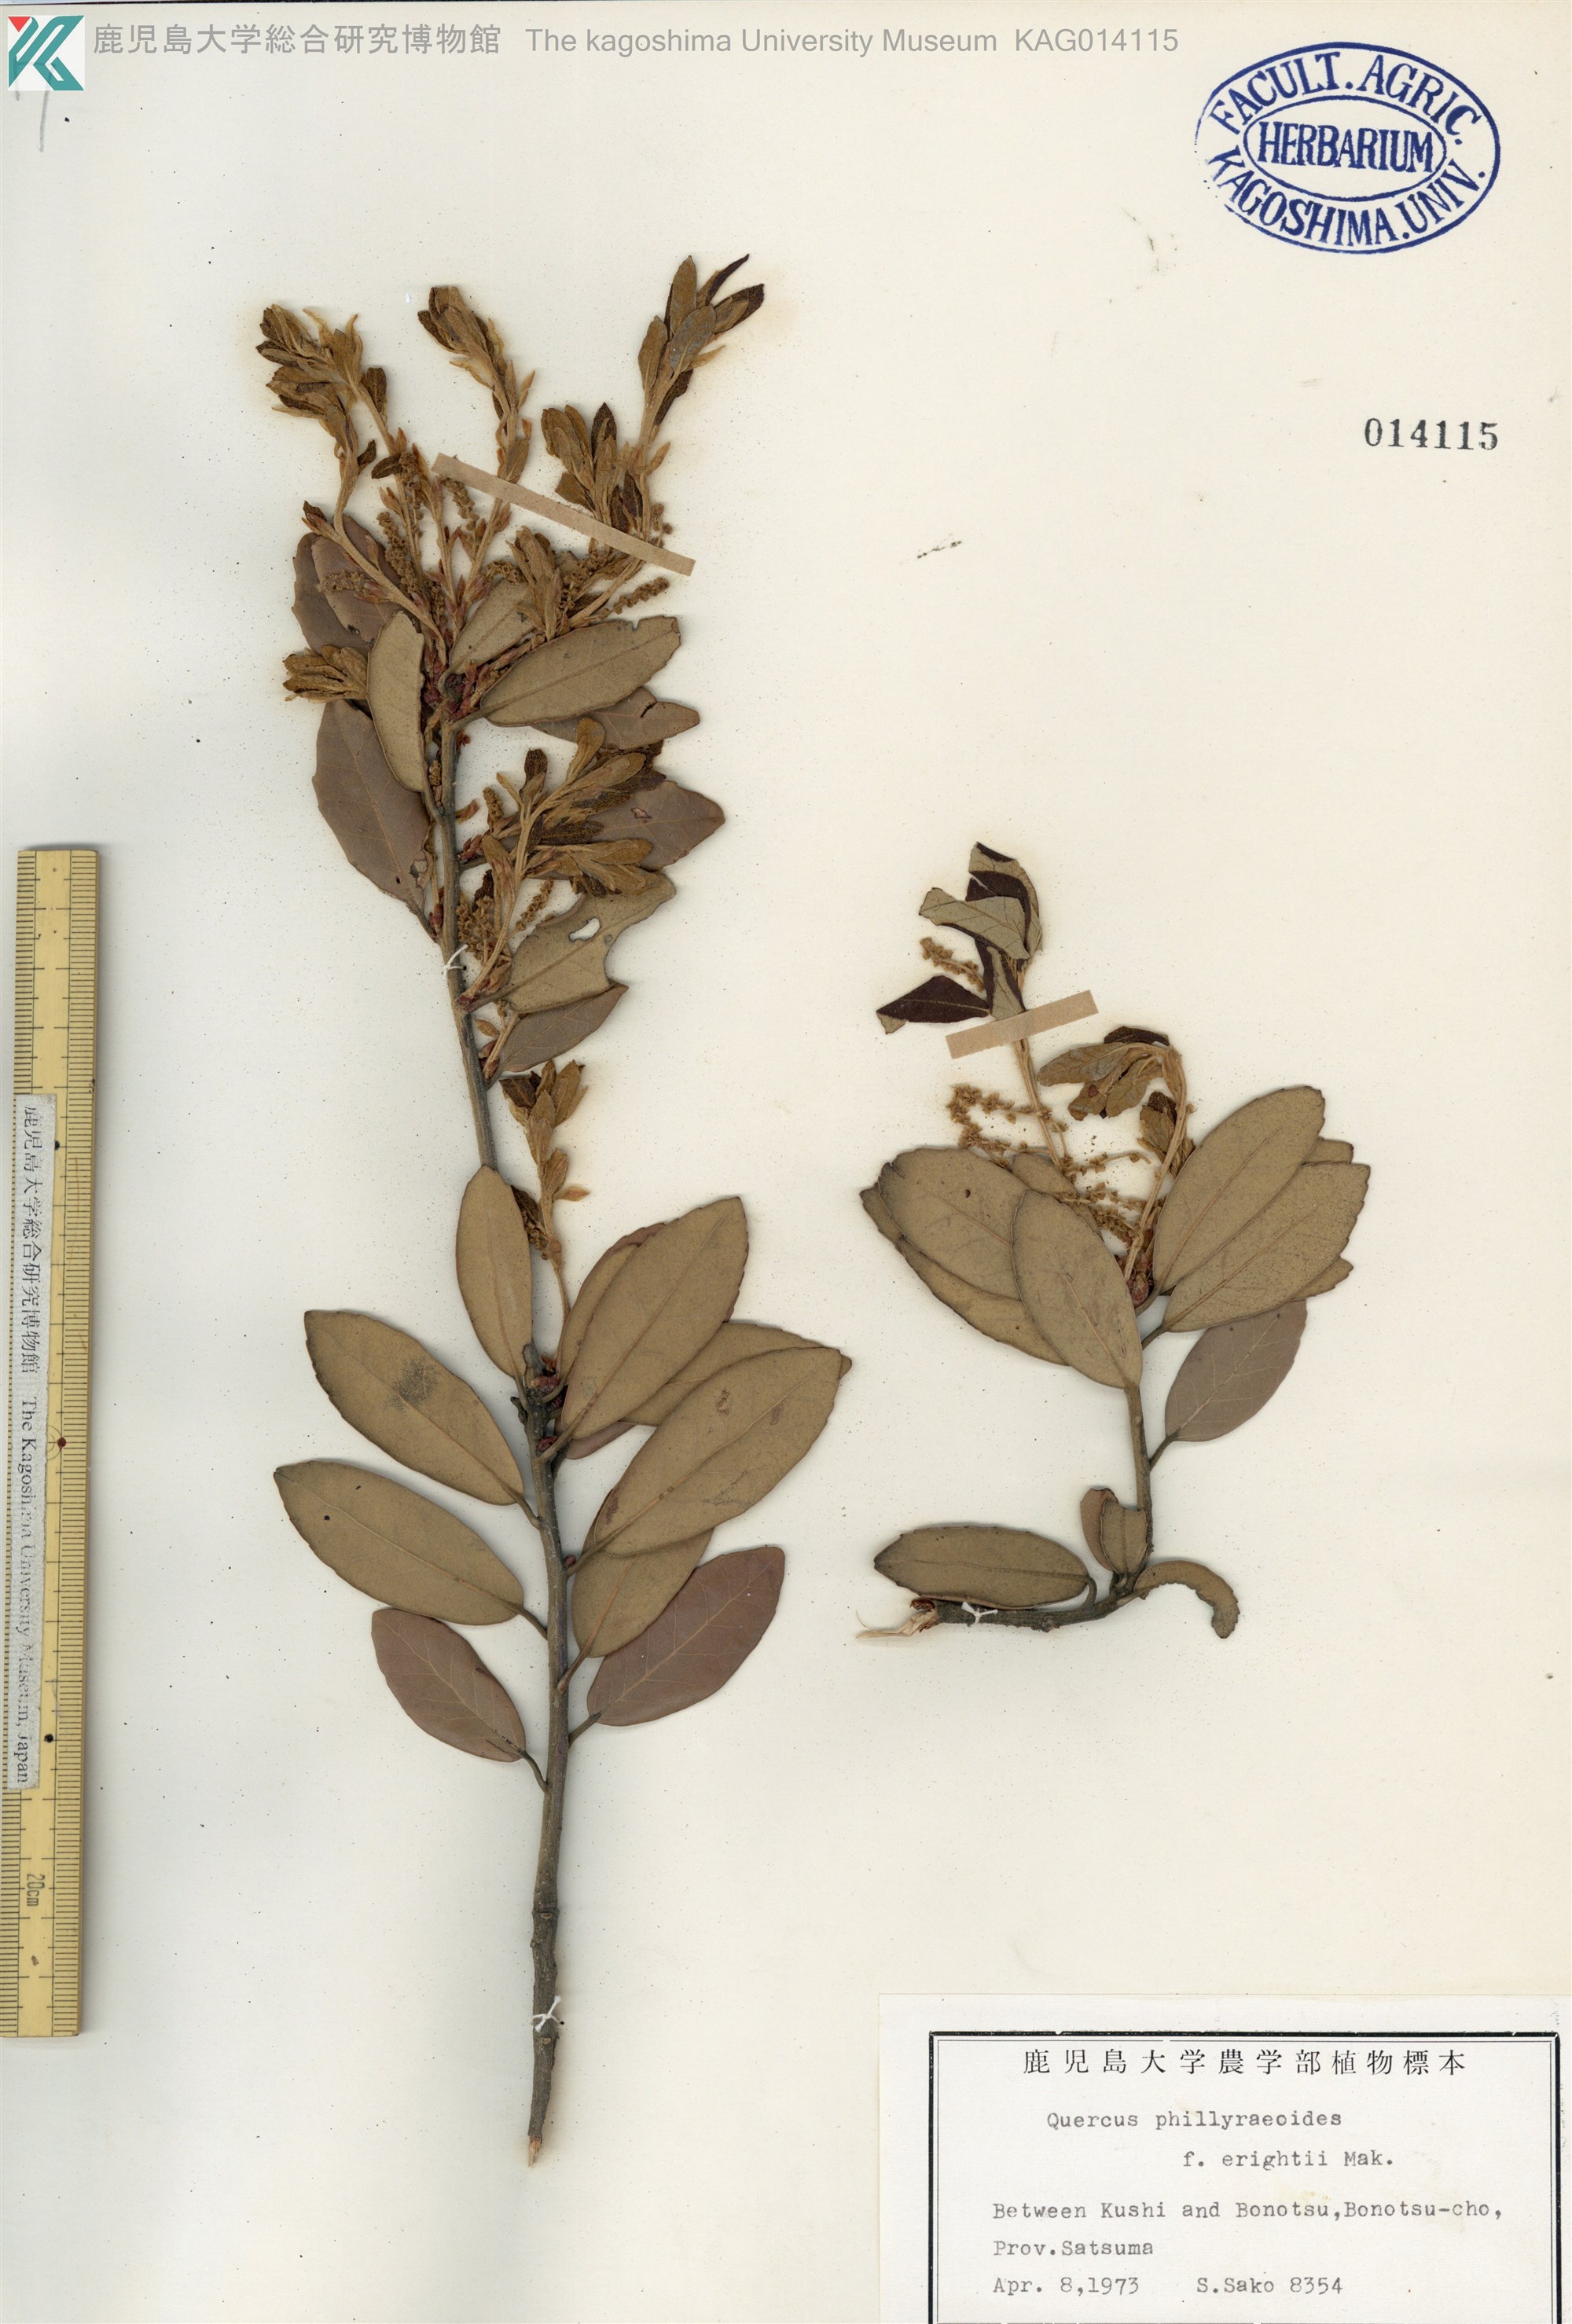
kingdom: Plantae
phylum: Tracheophyta
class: Magnoliopsida
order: Fagales
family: Fagaceae
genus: Quercus
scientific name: Quercus phillyreoides
